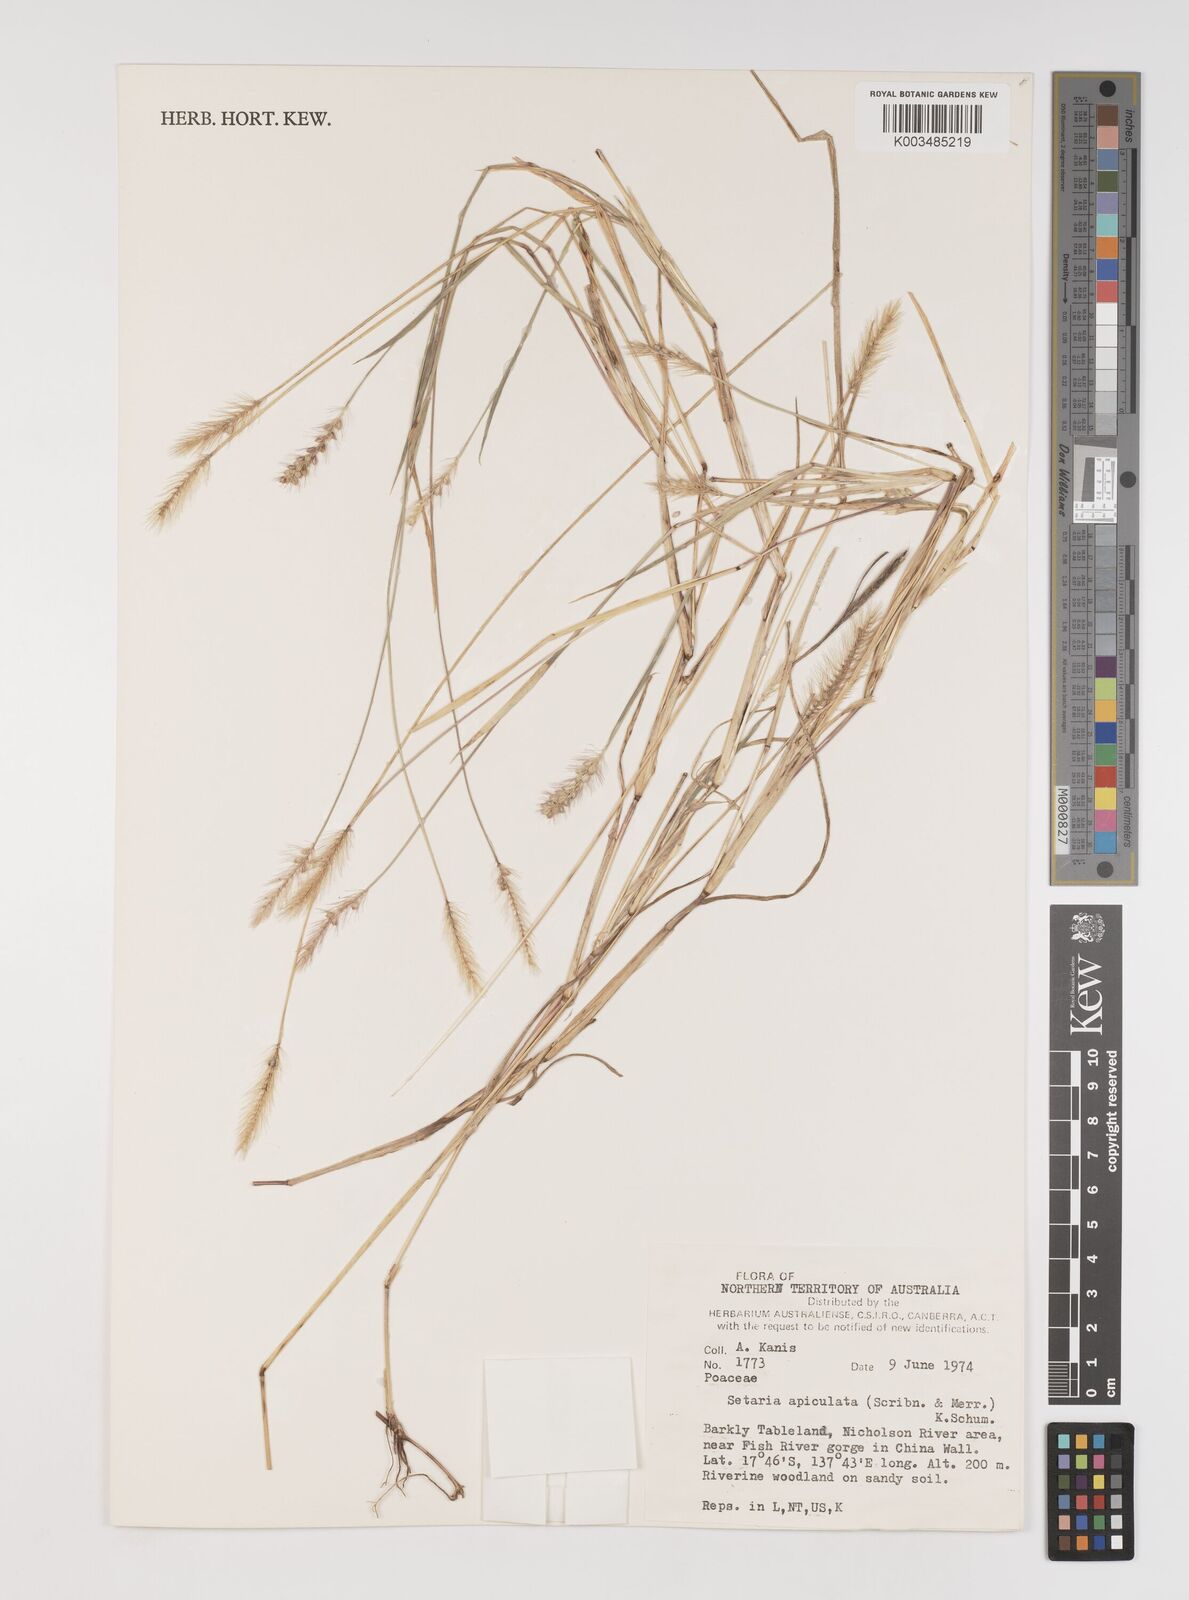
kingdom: Plantae
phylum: Tracheophyta
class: Liliopsida
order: Poales
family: Poaceae
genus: Setaria
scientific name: Setaria surgens
